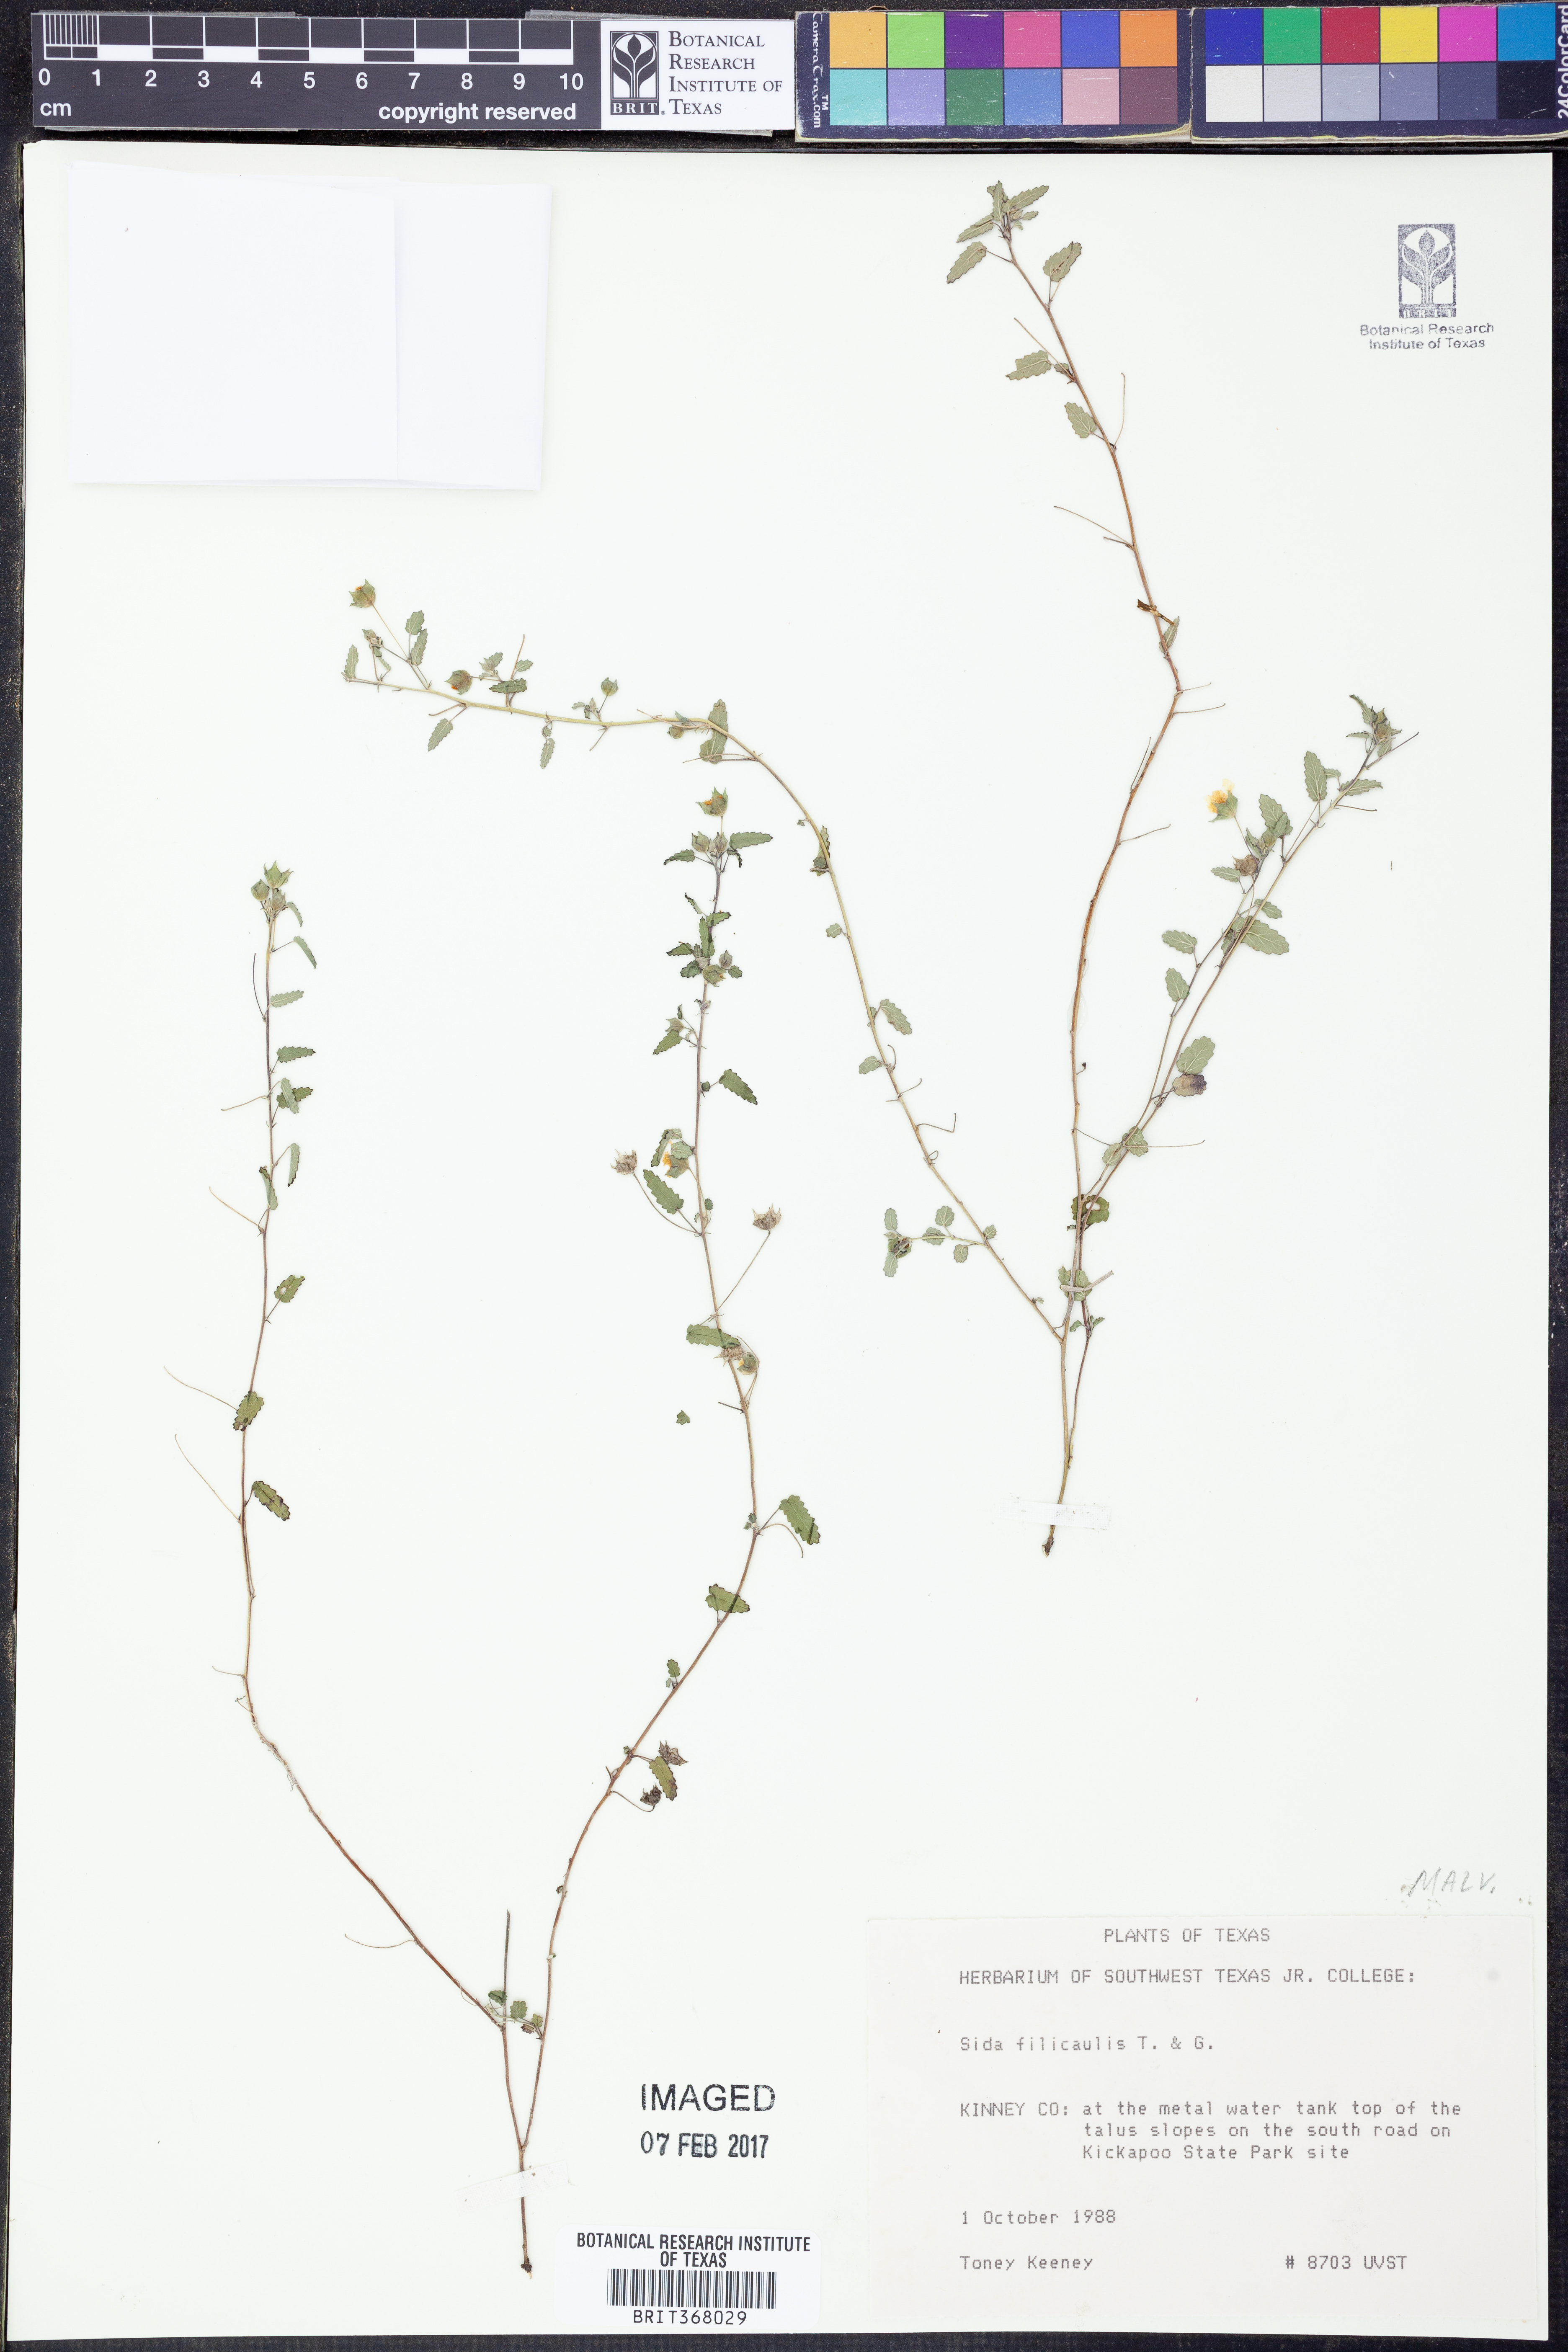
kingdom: Plantae
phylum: Tracheophyta
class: Magnoliopsida
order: Malvales
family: Malvaceae
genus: Sida
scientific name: Sida abutilifolia
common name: Spreading fanpetals
